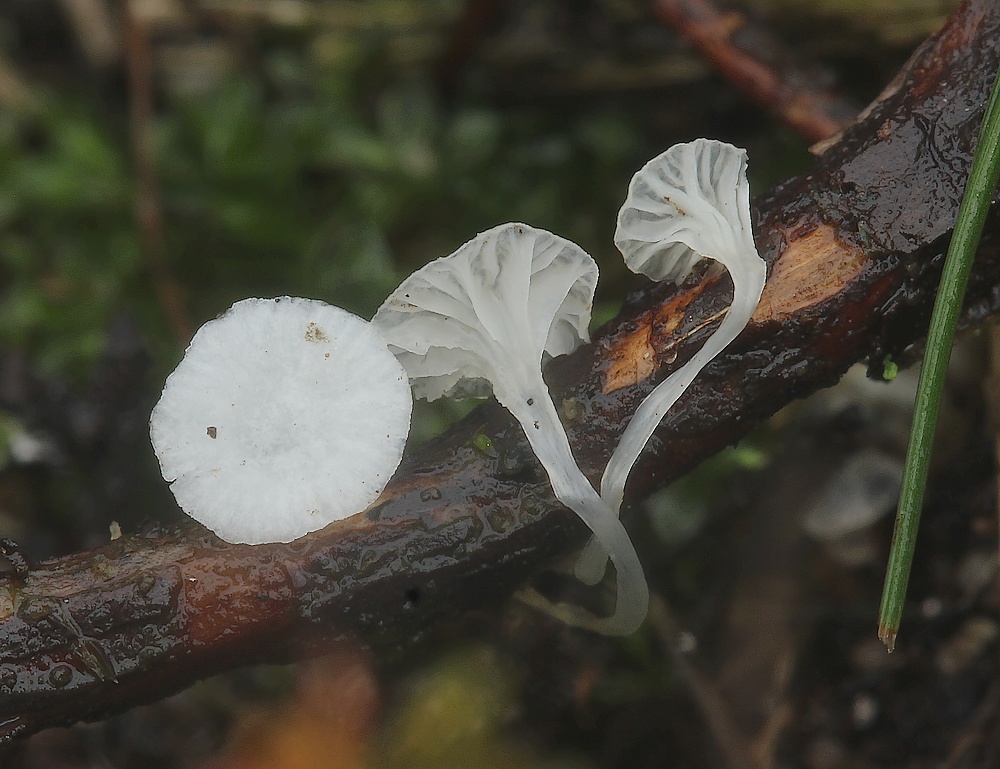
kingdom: Fungi
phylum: Basidiomycota
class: Agaricomycetes
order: Agaricales
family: Mycenaceae
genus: Hemimycena
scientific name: Hemimycena
